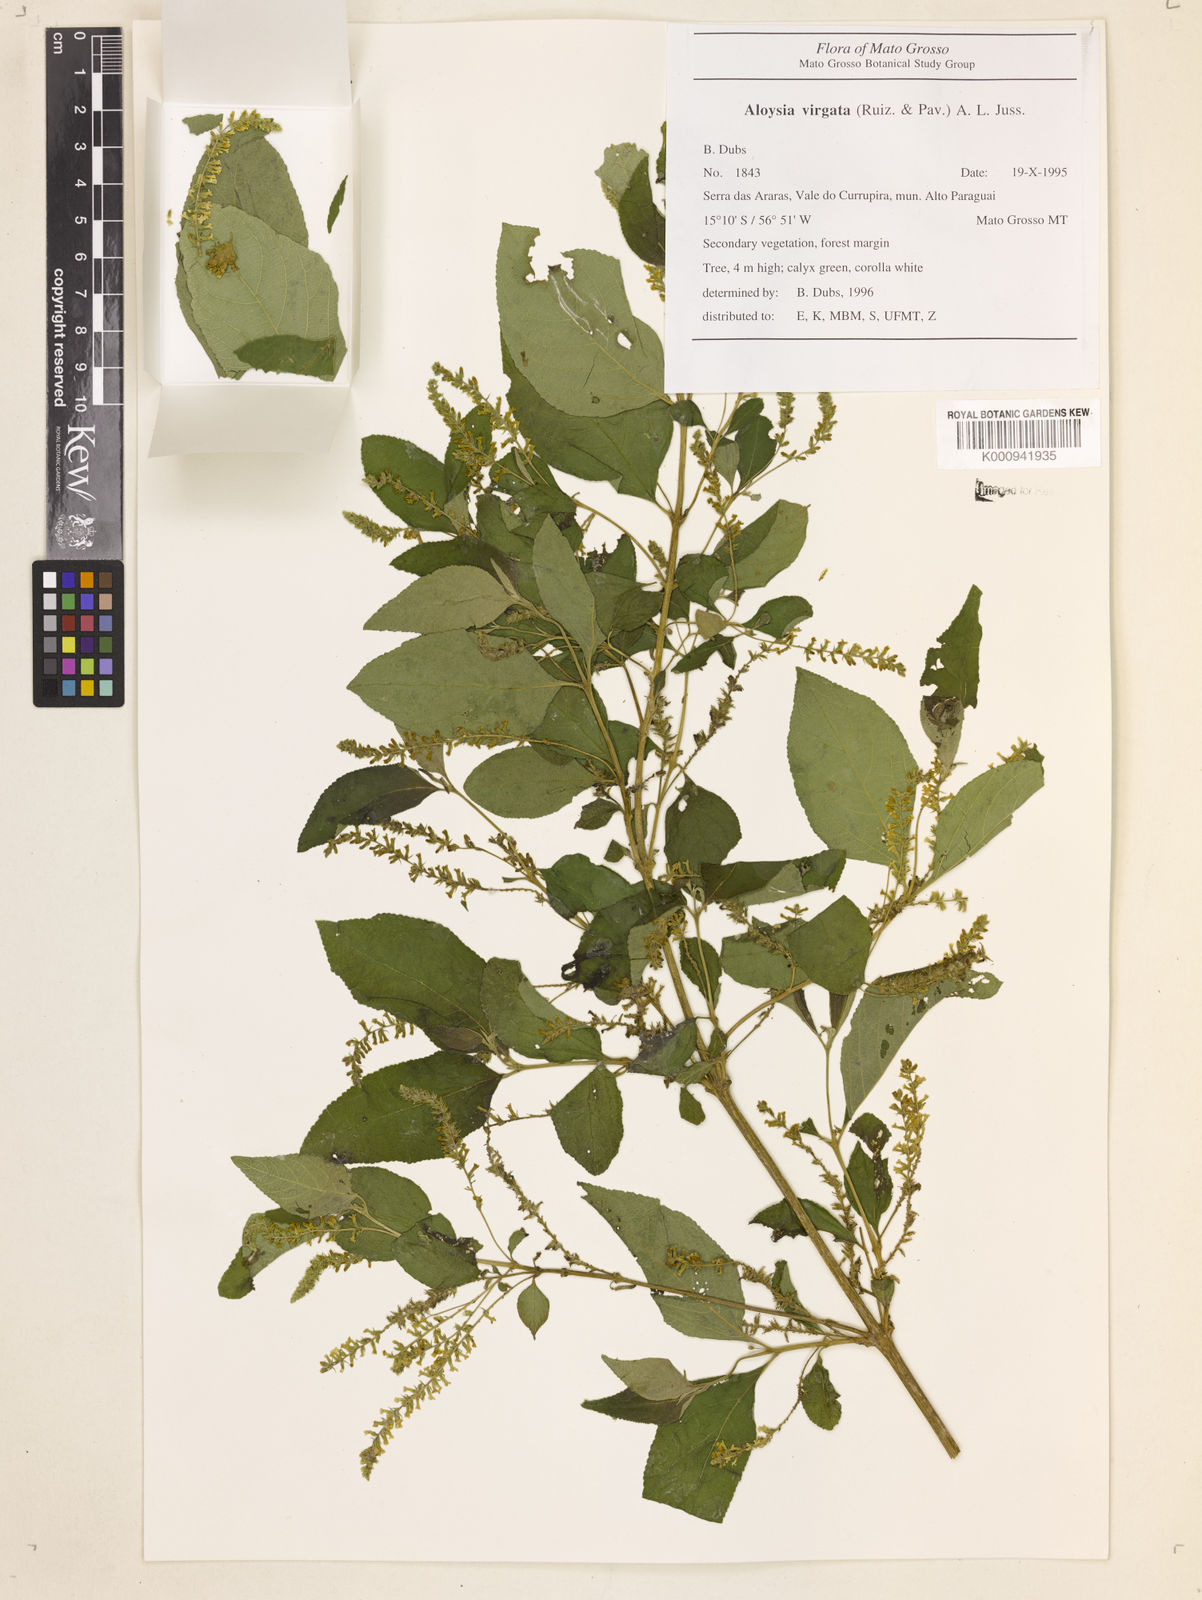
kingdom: Plantae
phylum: Tracheophyta
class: Magnoliopsida
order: Lamiales
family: Verbenaceae
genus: Aloysia
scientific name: Aloysia
